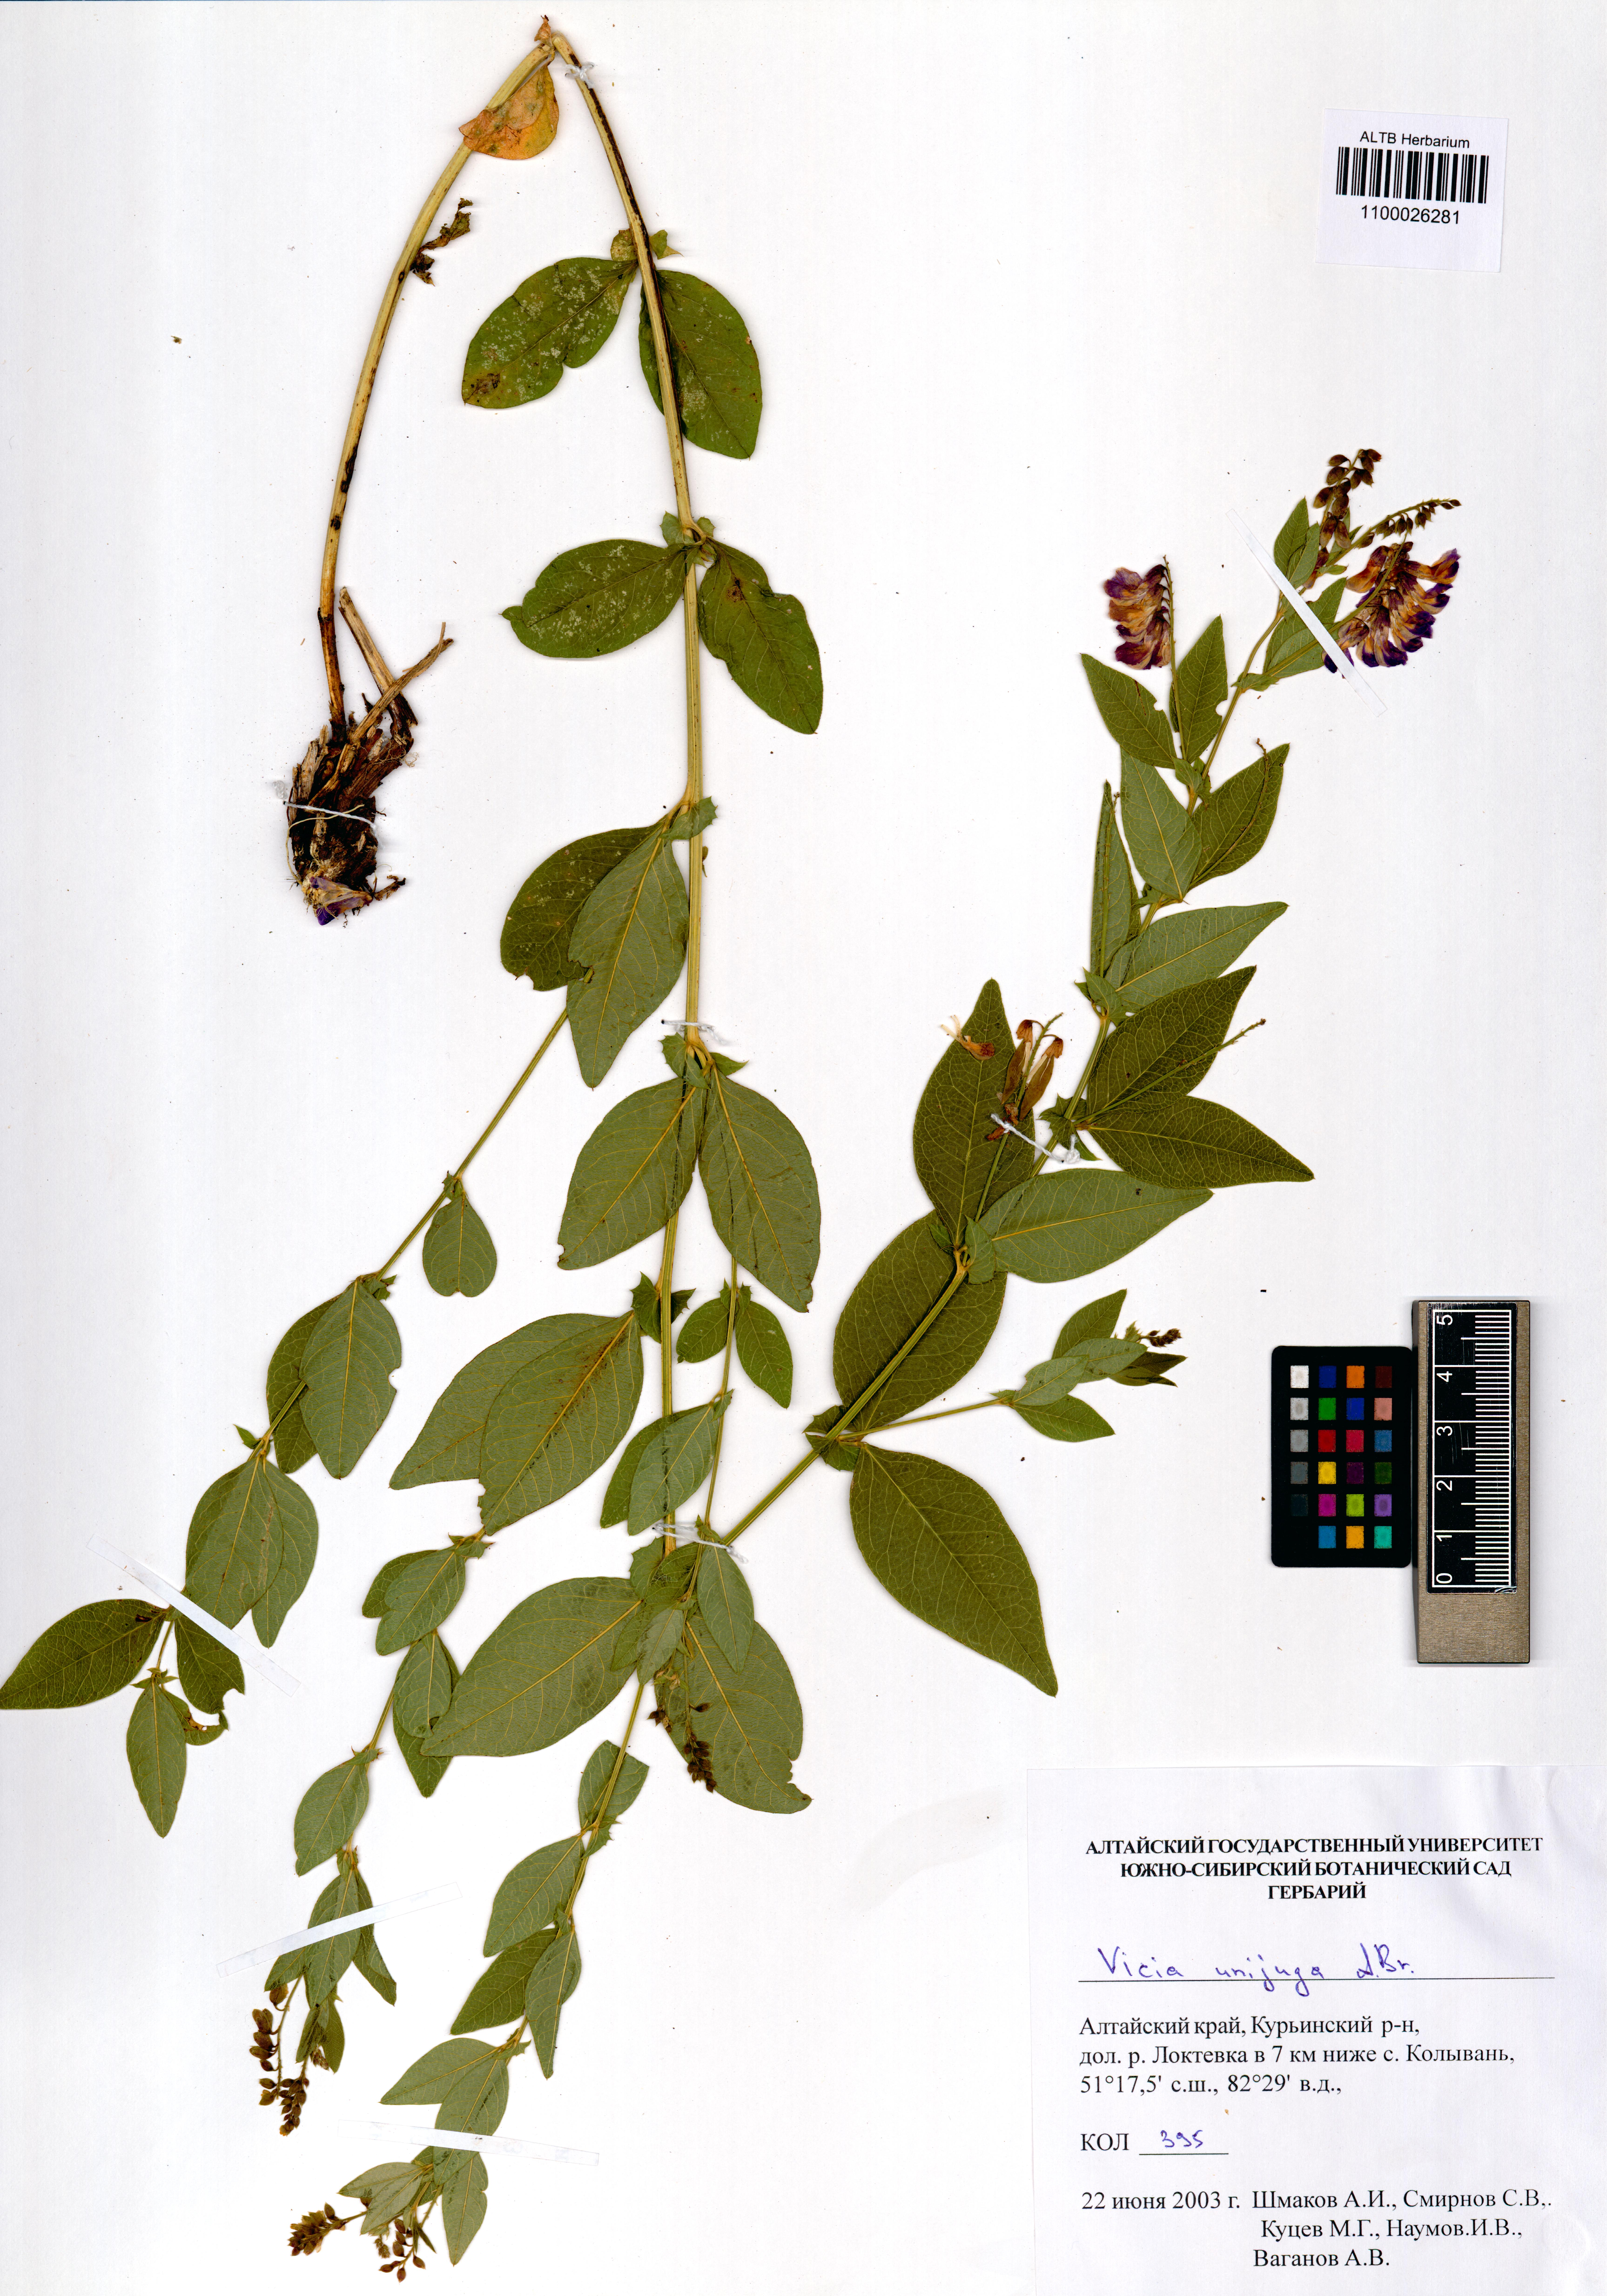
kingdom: Plantae
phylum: Tracheophyta
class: Magnoliopsida
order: Fabales
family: Fabaceae
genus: Vicia
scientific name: Vicia unijuga
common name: Two-leaf vetch
